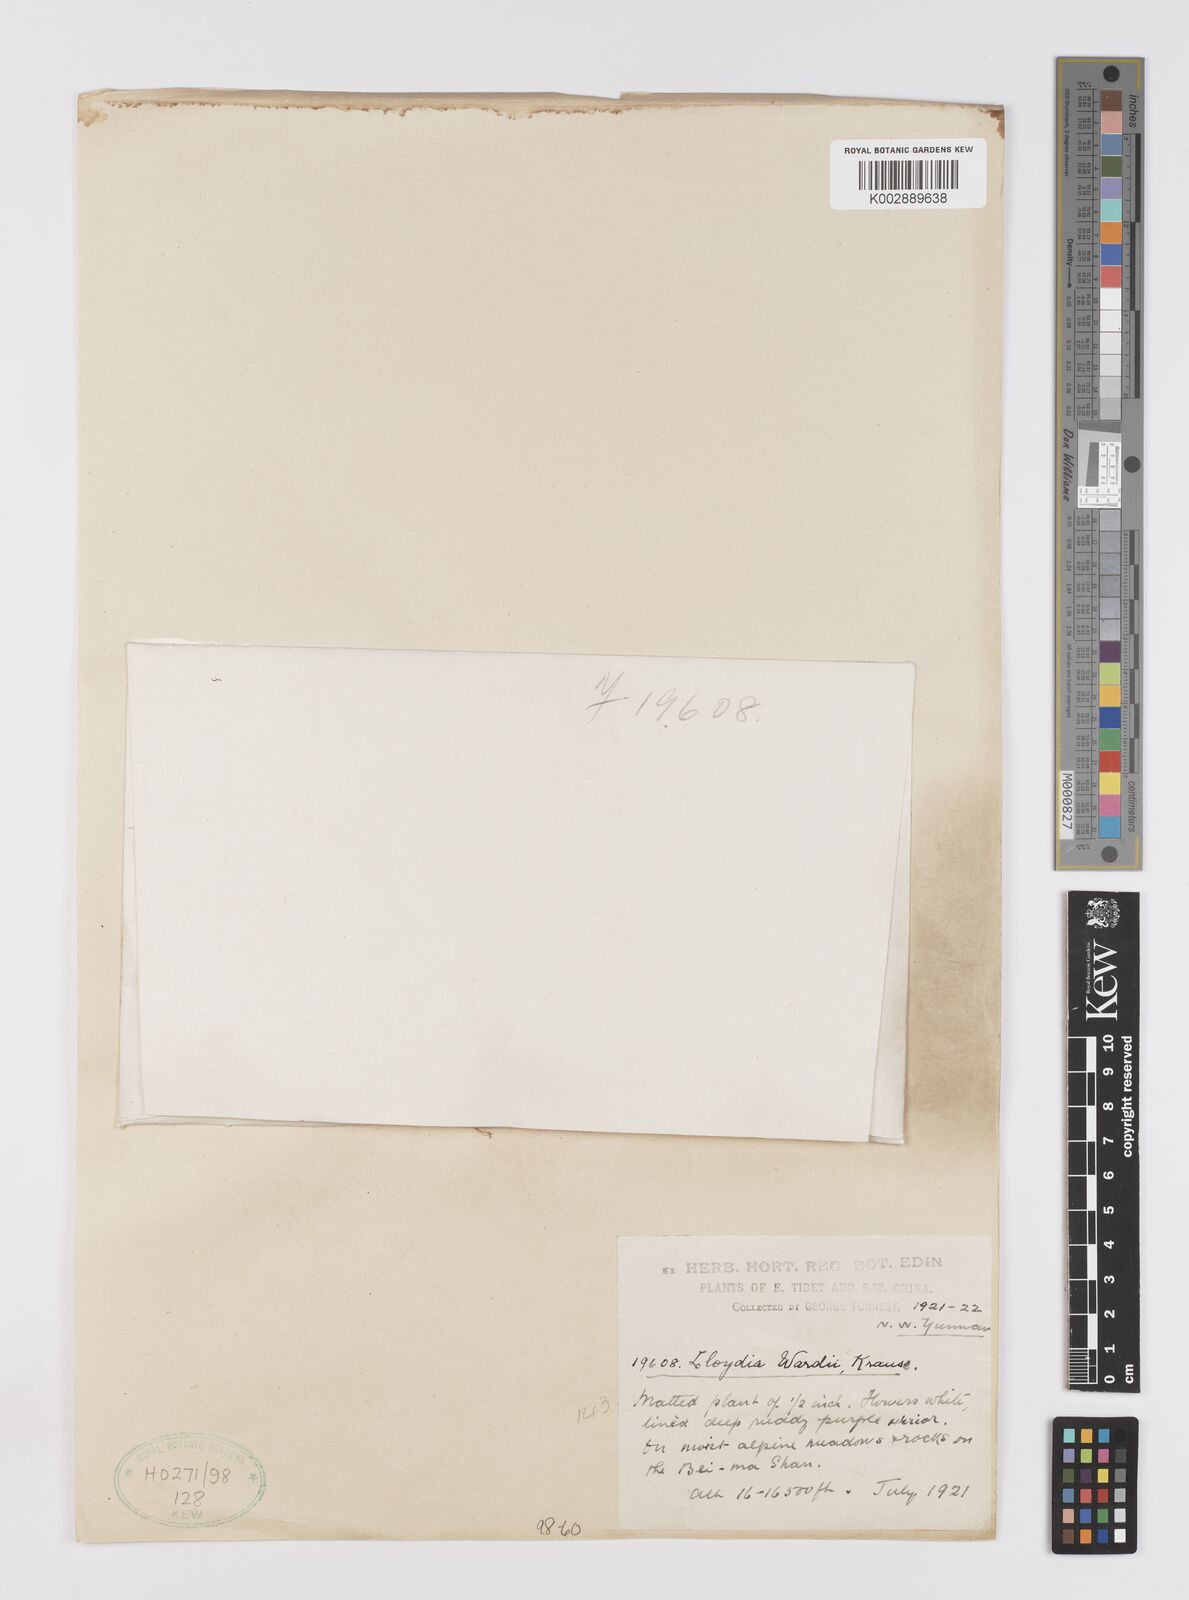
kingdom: Plantae
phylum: Tracheophyta
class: Liliopsida
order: Liliales
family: Liliaceae
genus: Gagea
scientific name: Gagea
